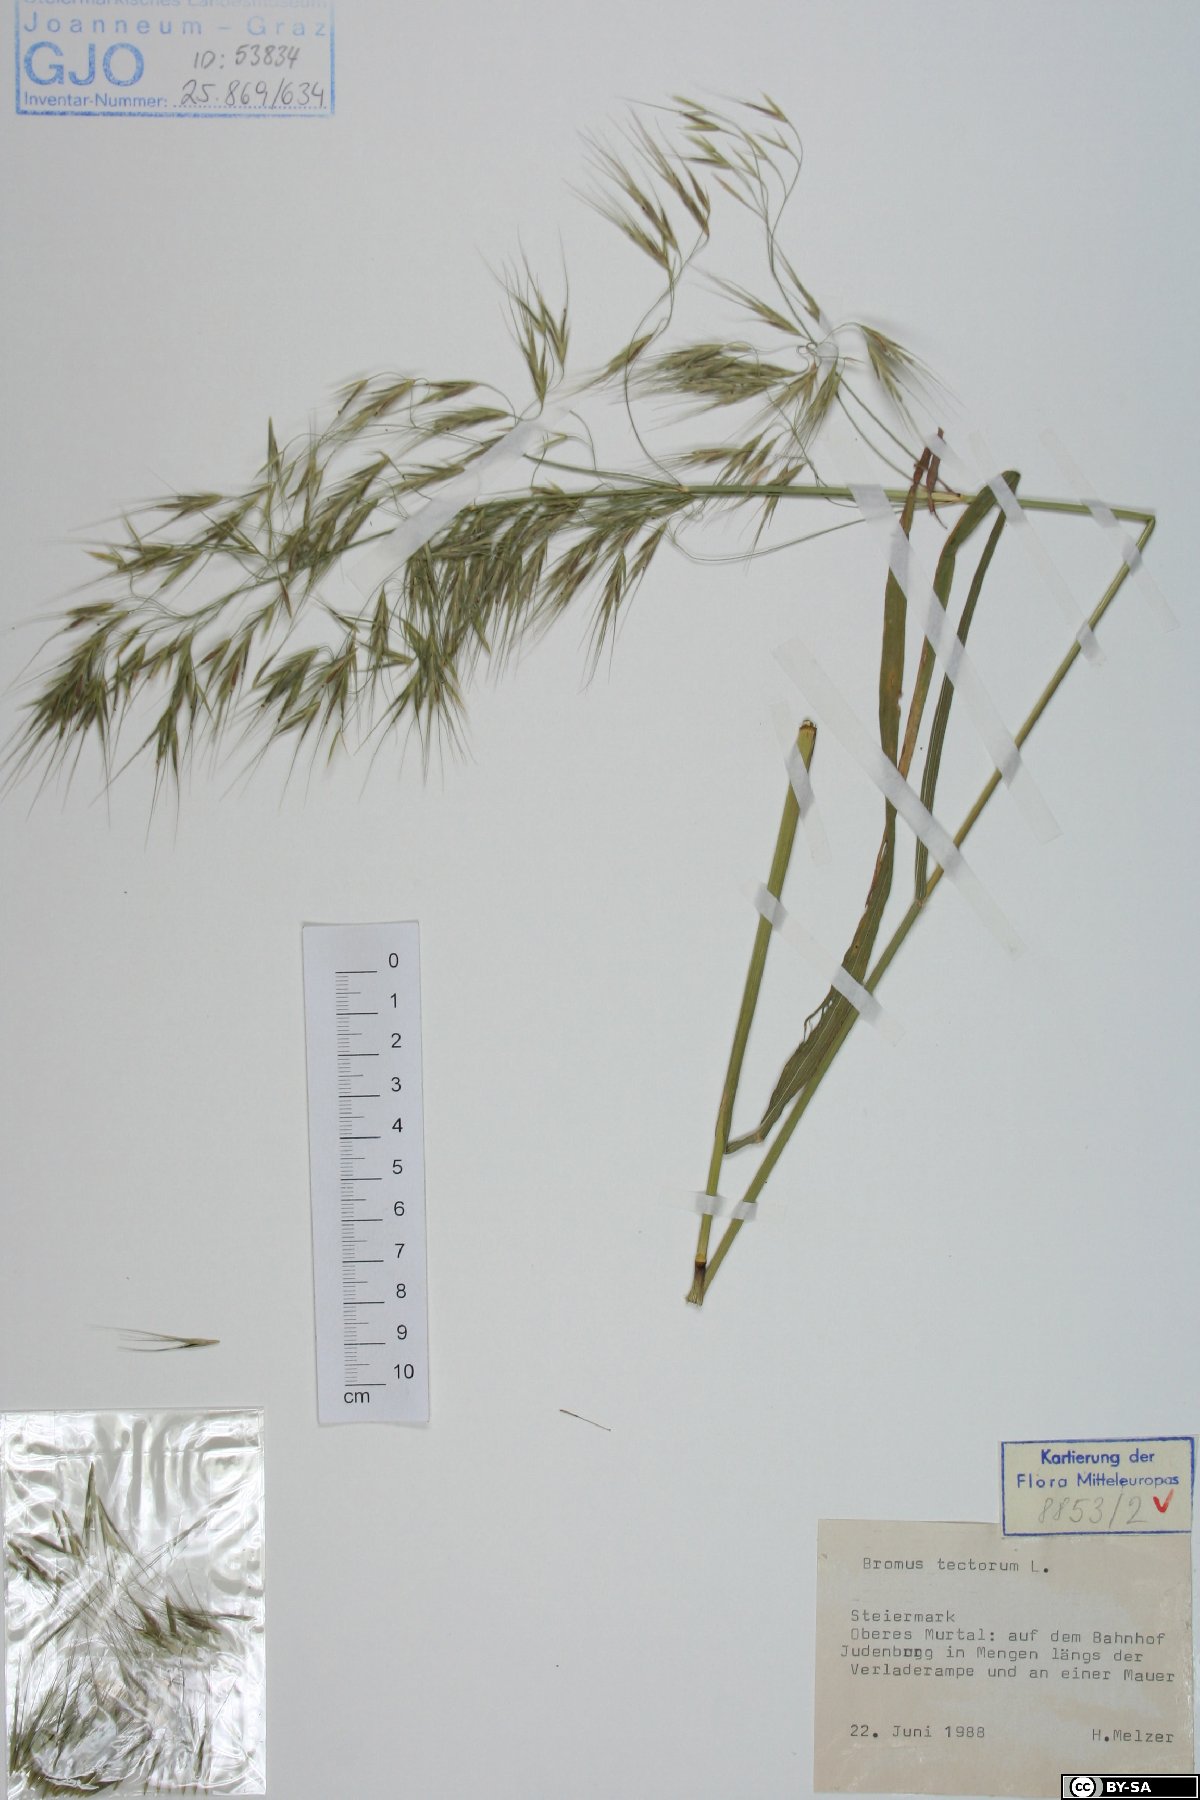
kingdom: Plantae
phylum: Tracheophyta
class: Liliopsida
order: Poales
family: Poaceae
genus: Bromus
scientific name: Bromus tectorum
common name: Cheatgrass
